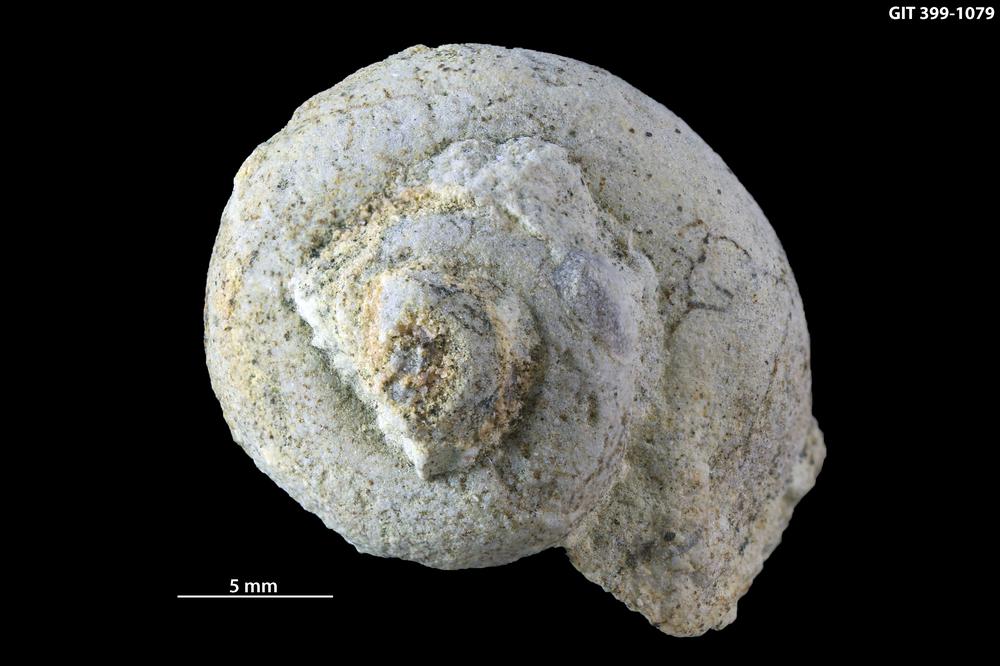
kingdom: Animalia
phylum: Mollusca
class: Gastropoda
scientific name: Gastropoda
